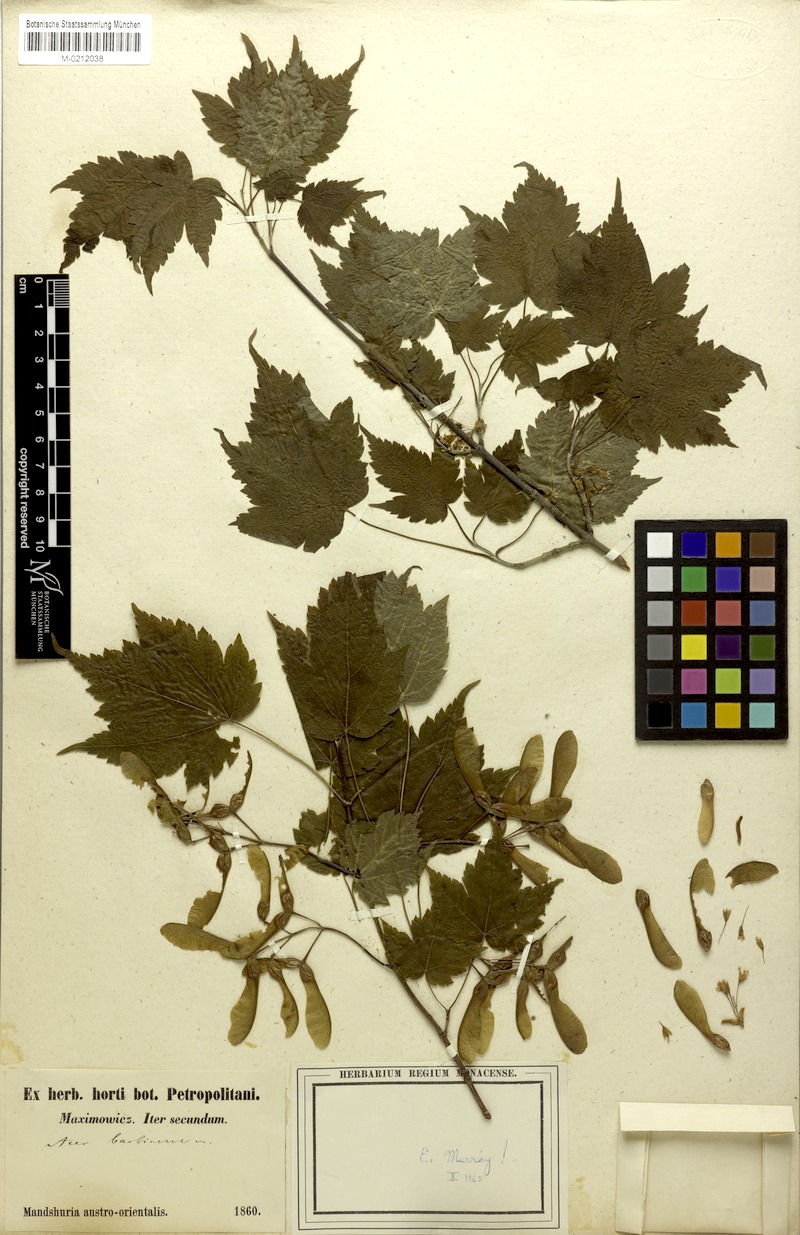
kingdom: Plantae
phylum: Tracheophyta
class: Magnoliopsida
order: Sapindales
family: Sapindaceae
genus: Acer
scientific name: Acer barbinerve
